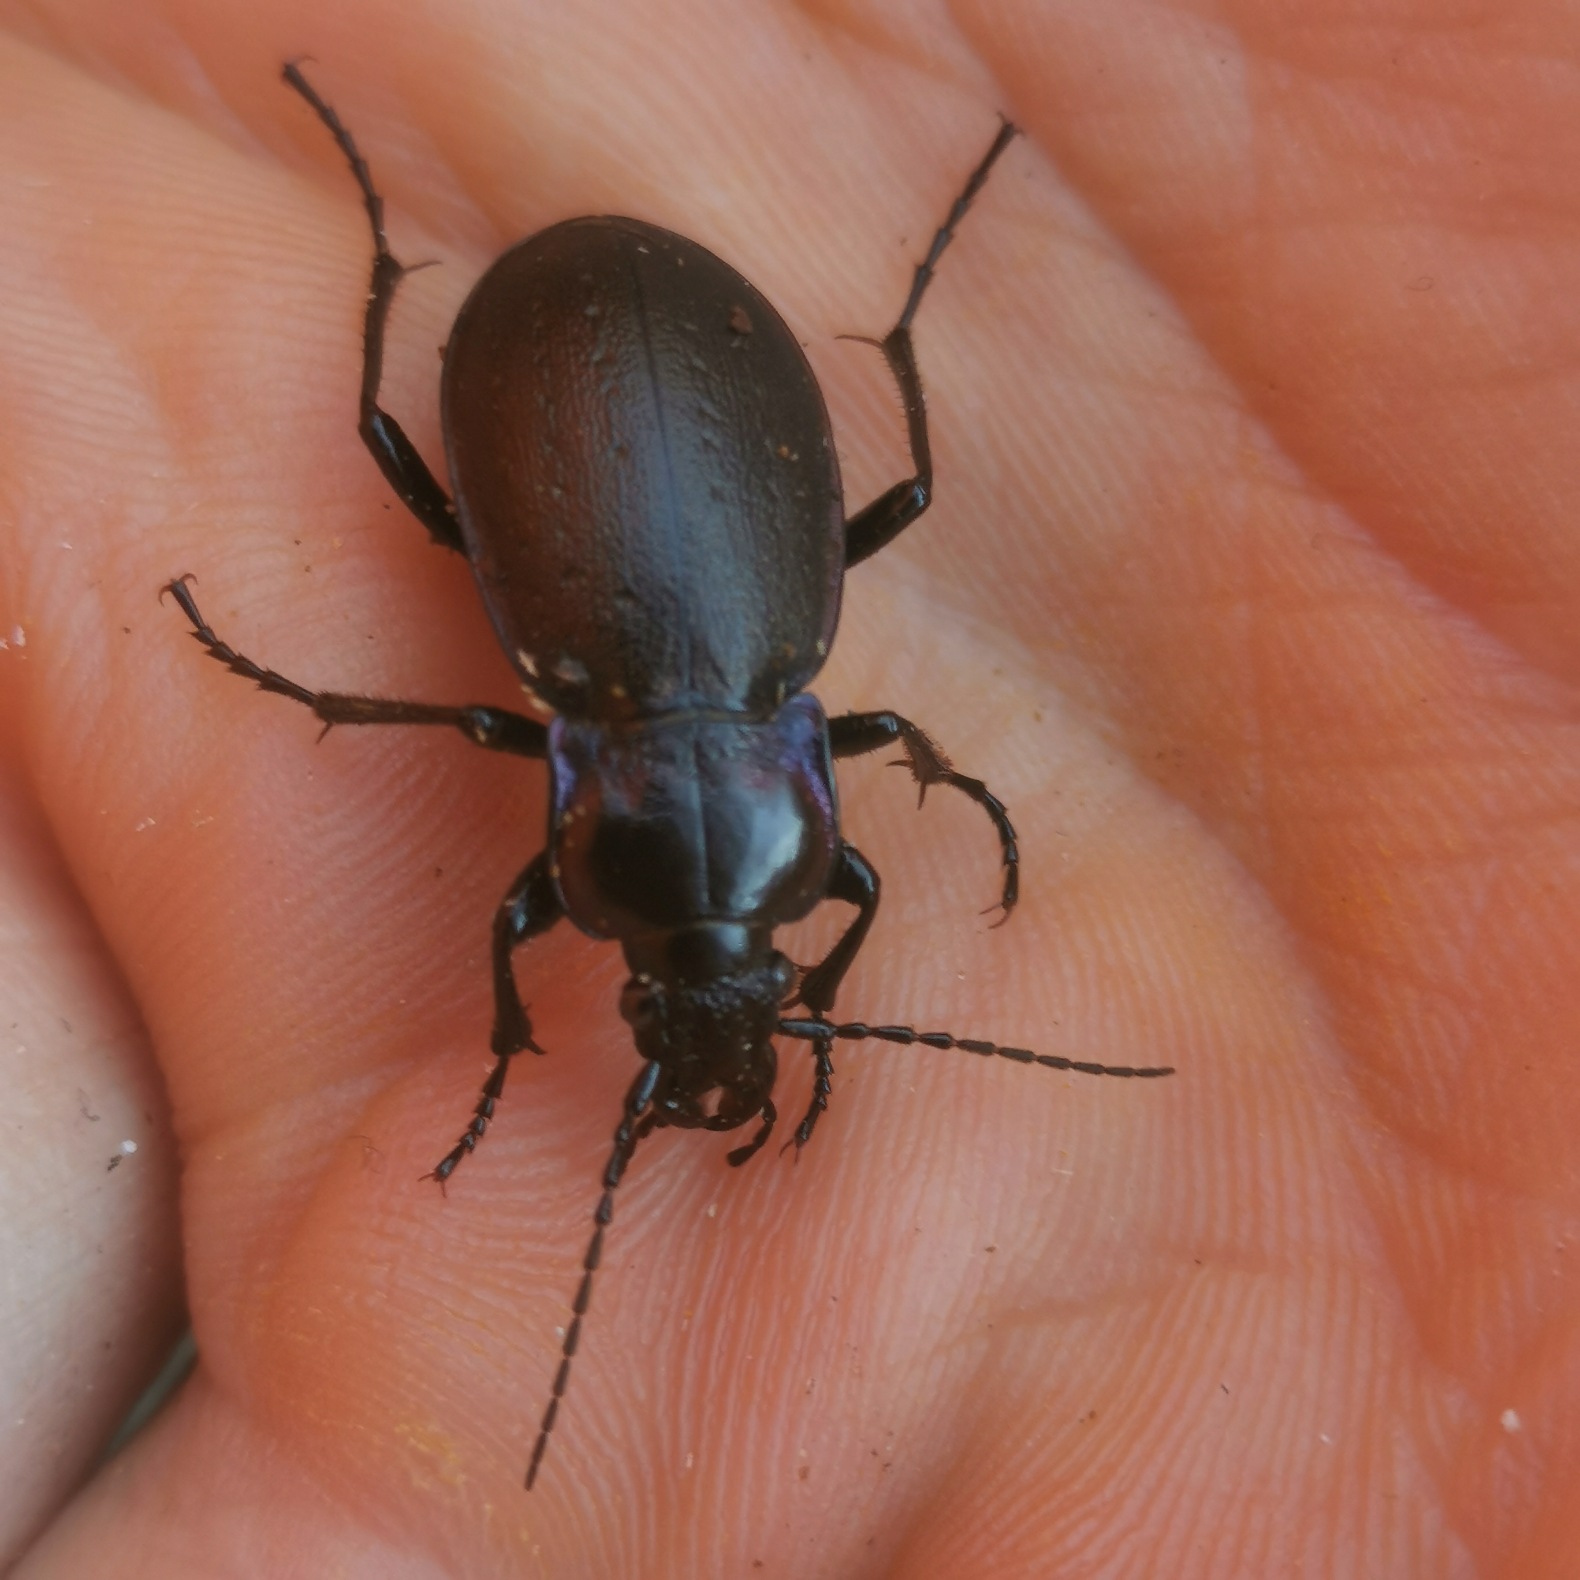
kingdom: Animalia
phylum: Arthropoda
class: Insecta
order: Coleoptera
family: Carabidae
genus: Carabus
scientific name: Carabus nemoralis
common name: Kratløber
